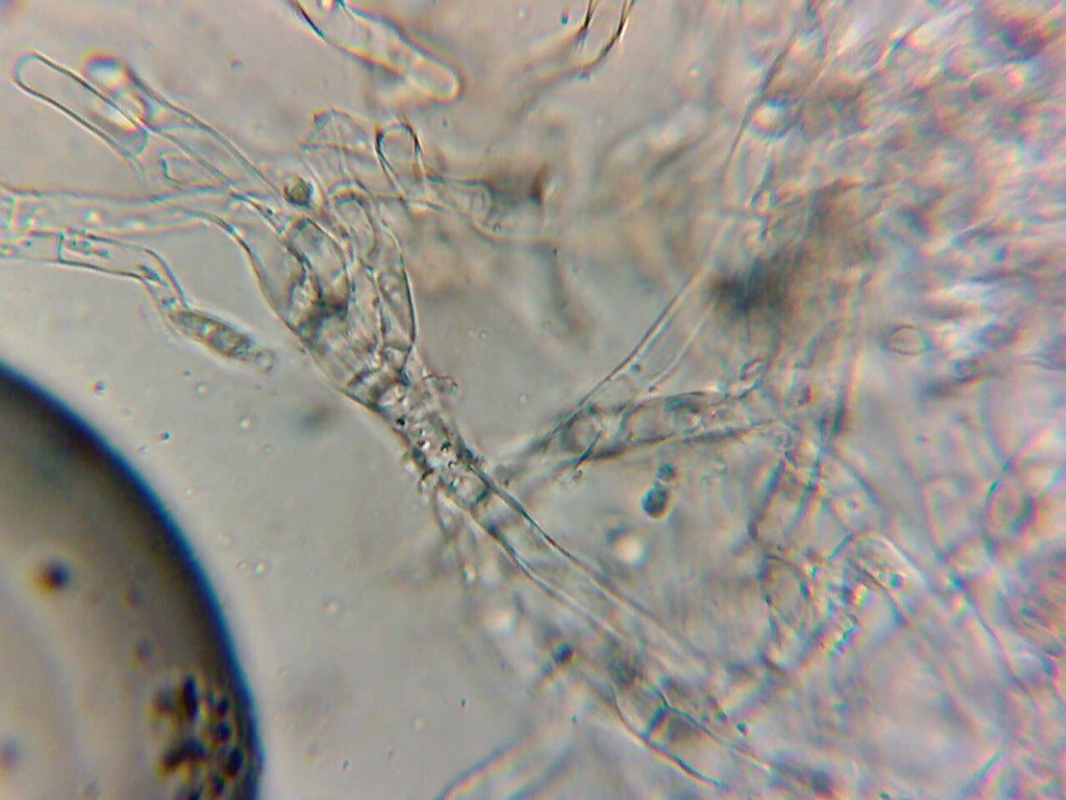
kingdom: Fungi
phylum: Basidiomycota
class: Agaricomycetes
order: Trechisporales
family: Sistotremataceae
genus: Trechispora
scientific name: Trechispora mollusca
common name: pyramide-vathinde
